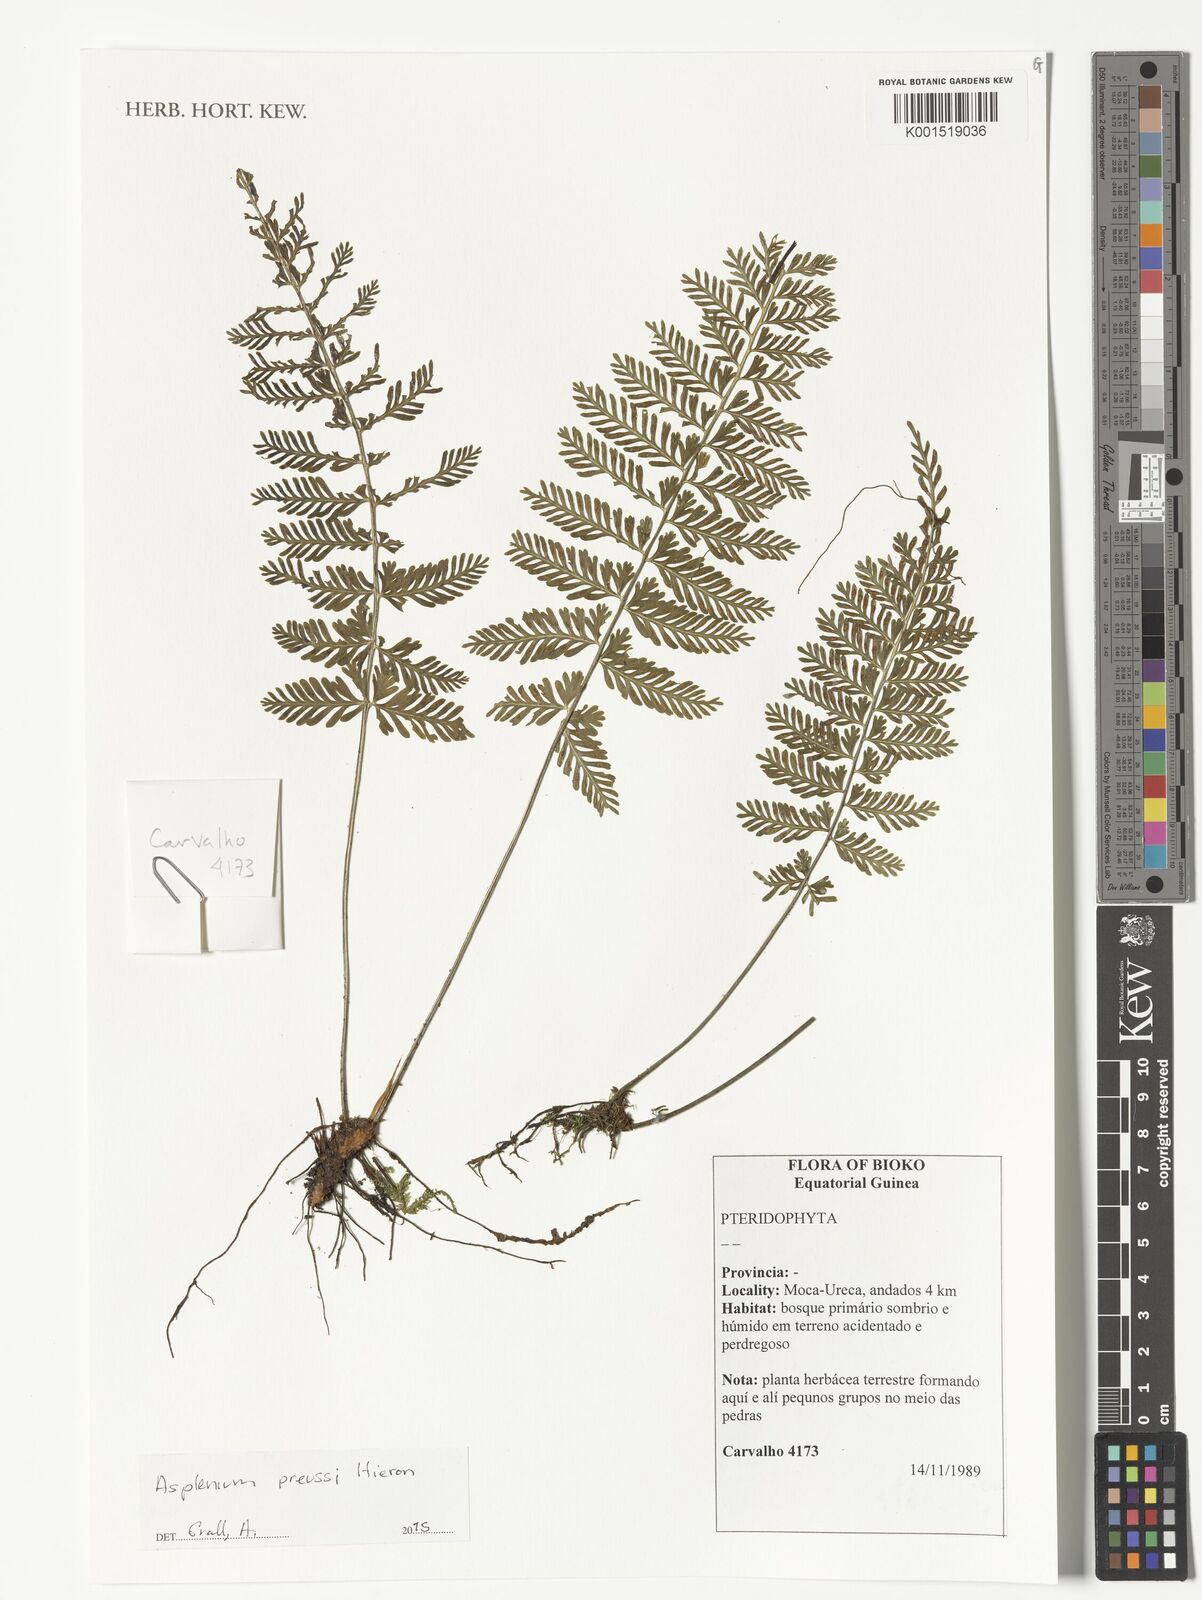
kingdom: Plantae
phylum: Tracheophyta
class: Polypodiopsida
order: Polypodiales
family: Aspleniaceae
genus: Asplenium
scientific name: Asplenium preussii
